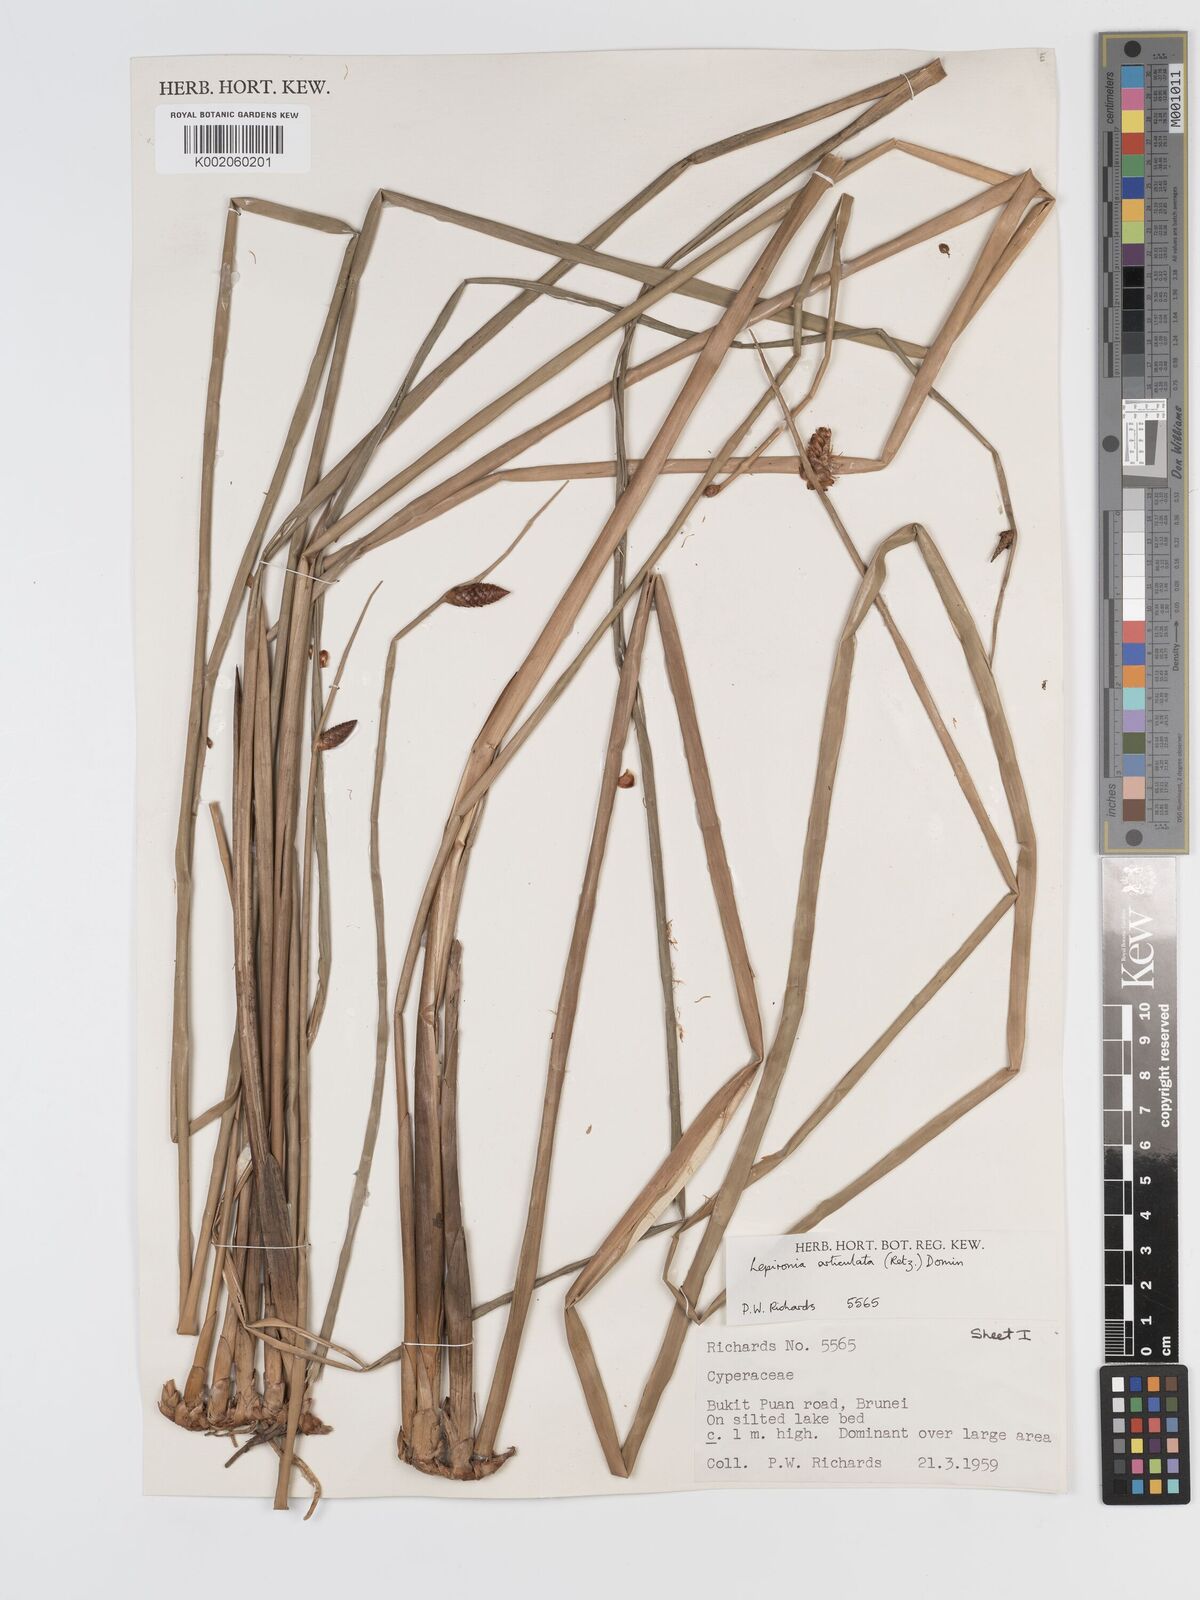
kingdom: Plantae
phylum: Tracheophyta
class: Liliopsida
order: Poales
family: Cyperaceae
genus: Lepironia
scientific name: Lepironia articulata
